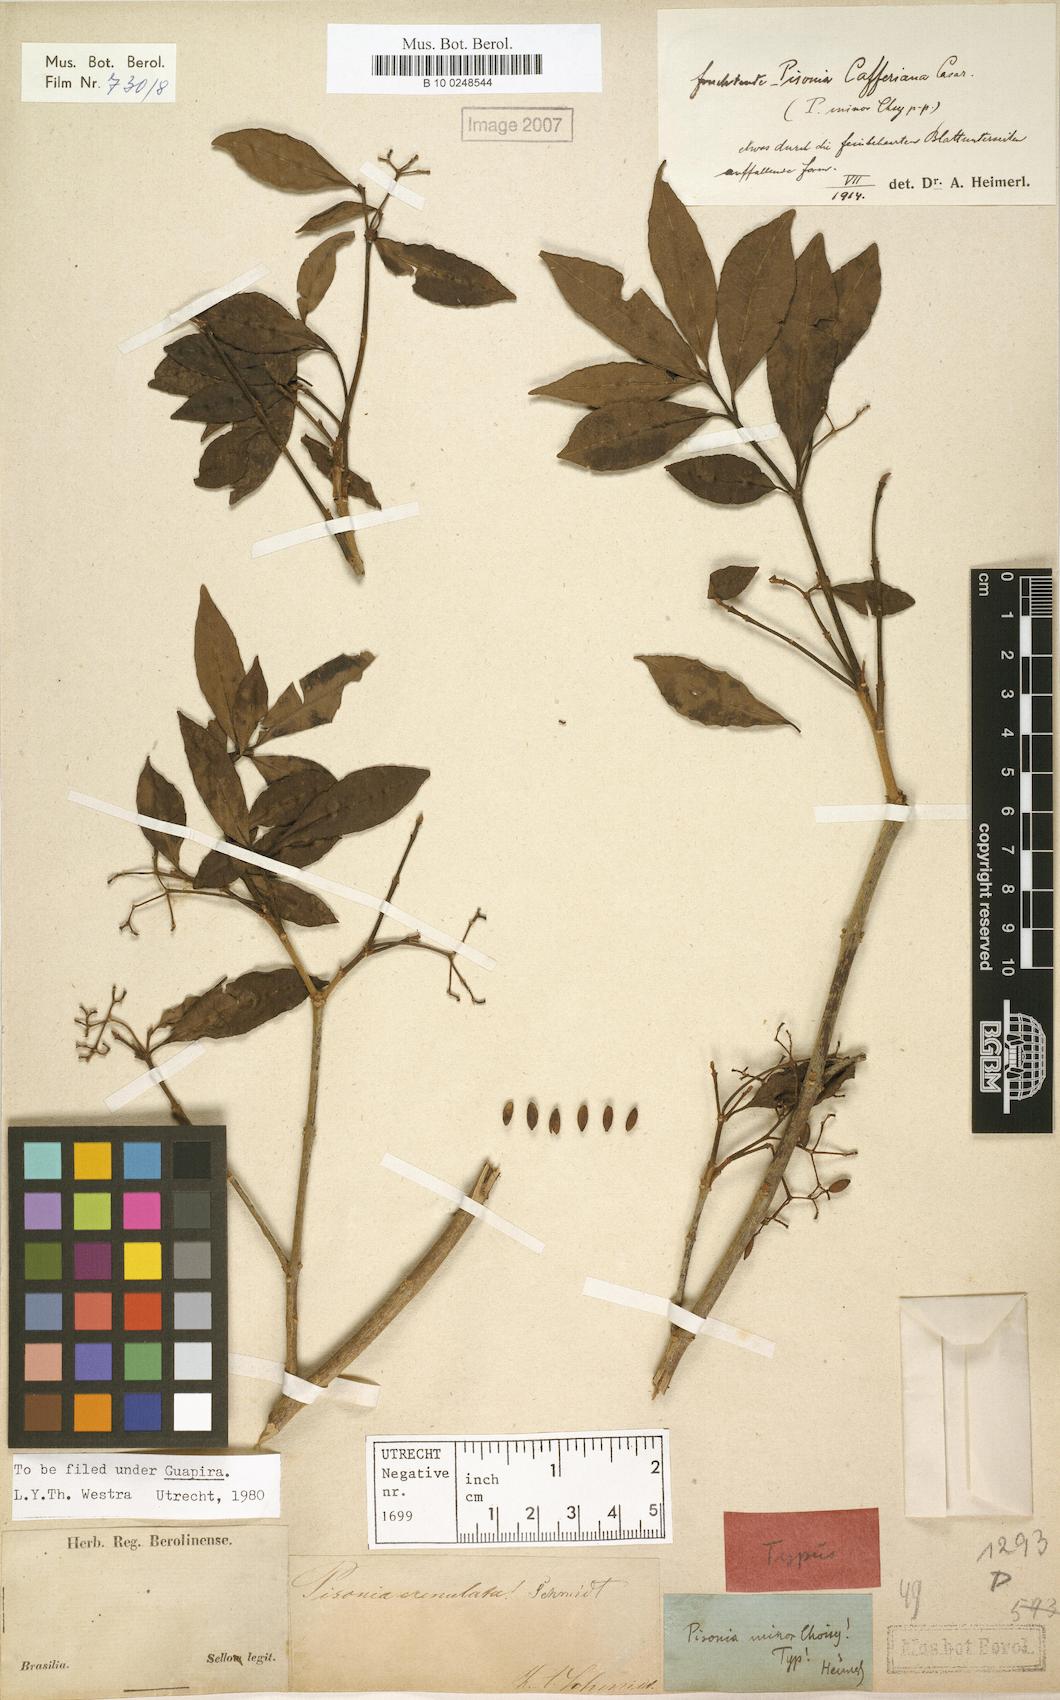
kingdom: Plantae
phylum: Tracheophyta
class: Magnoliopsida
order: Caryophyllales
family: Nyctaginaceae
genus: Guapira
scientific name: Guapira opposita
